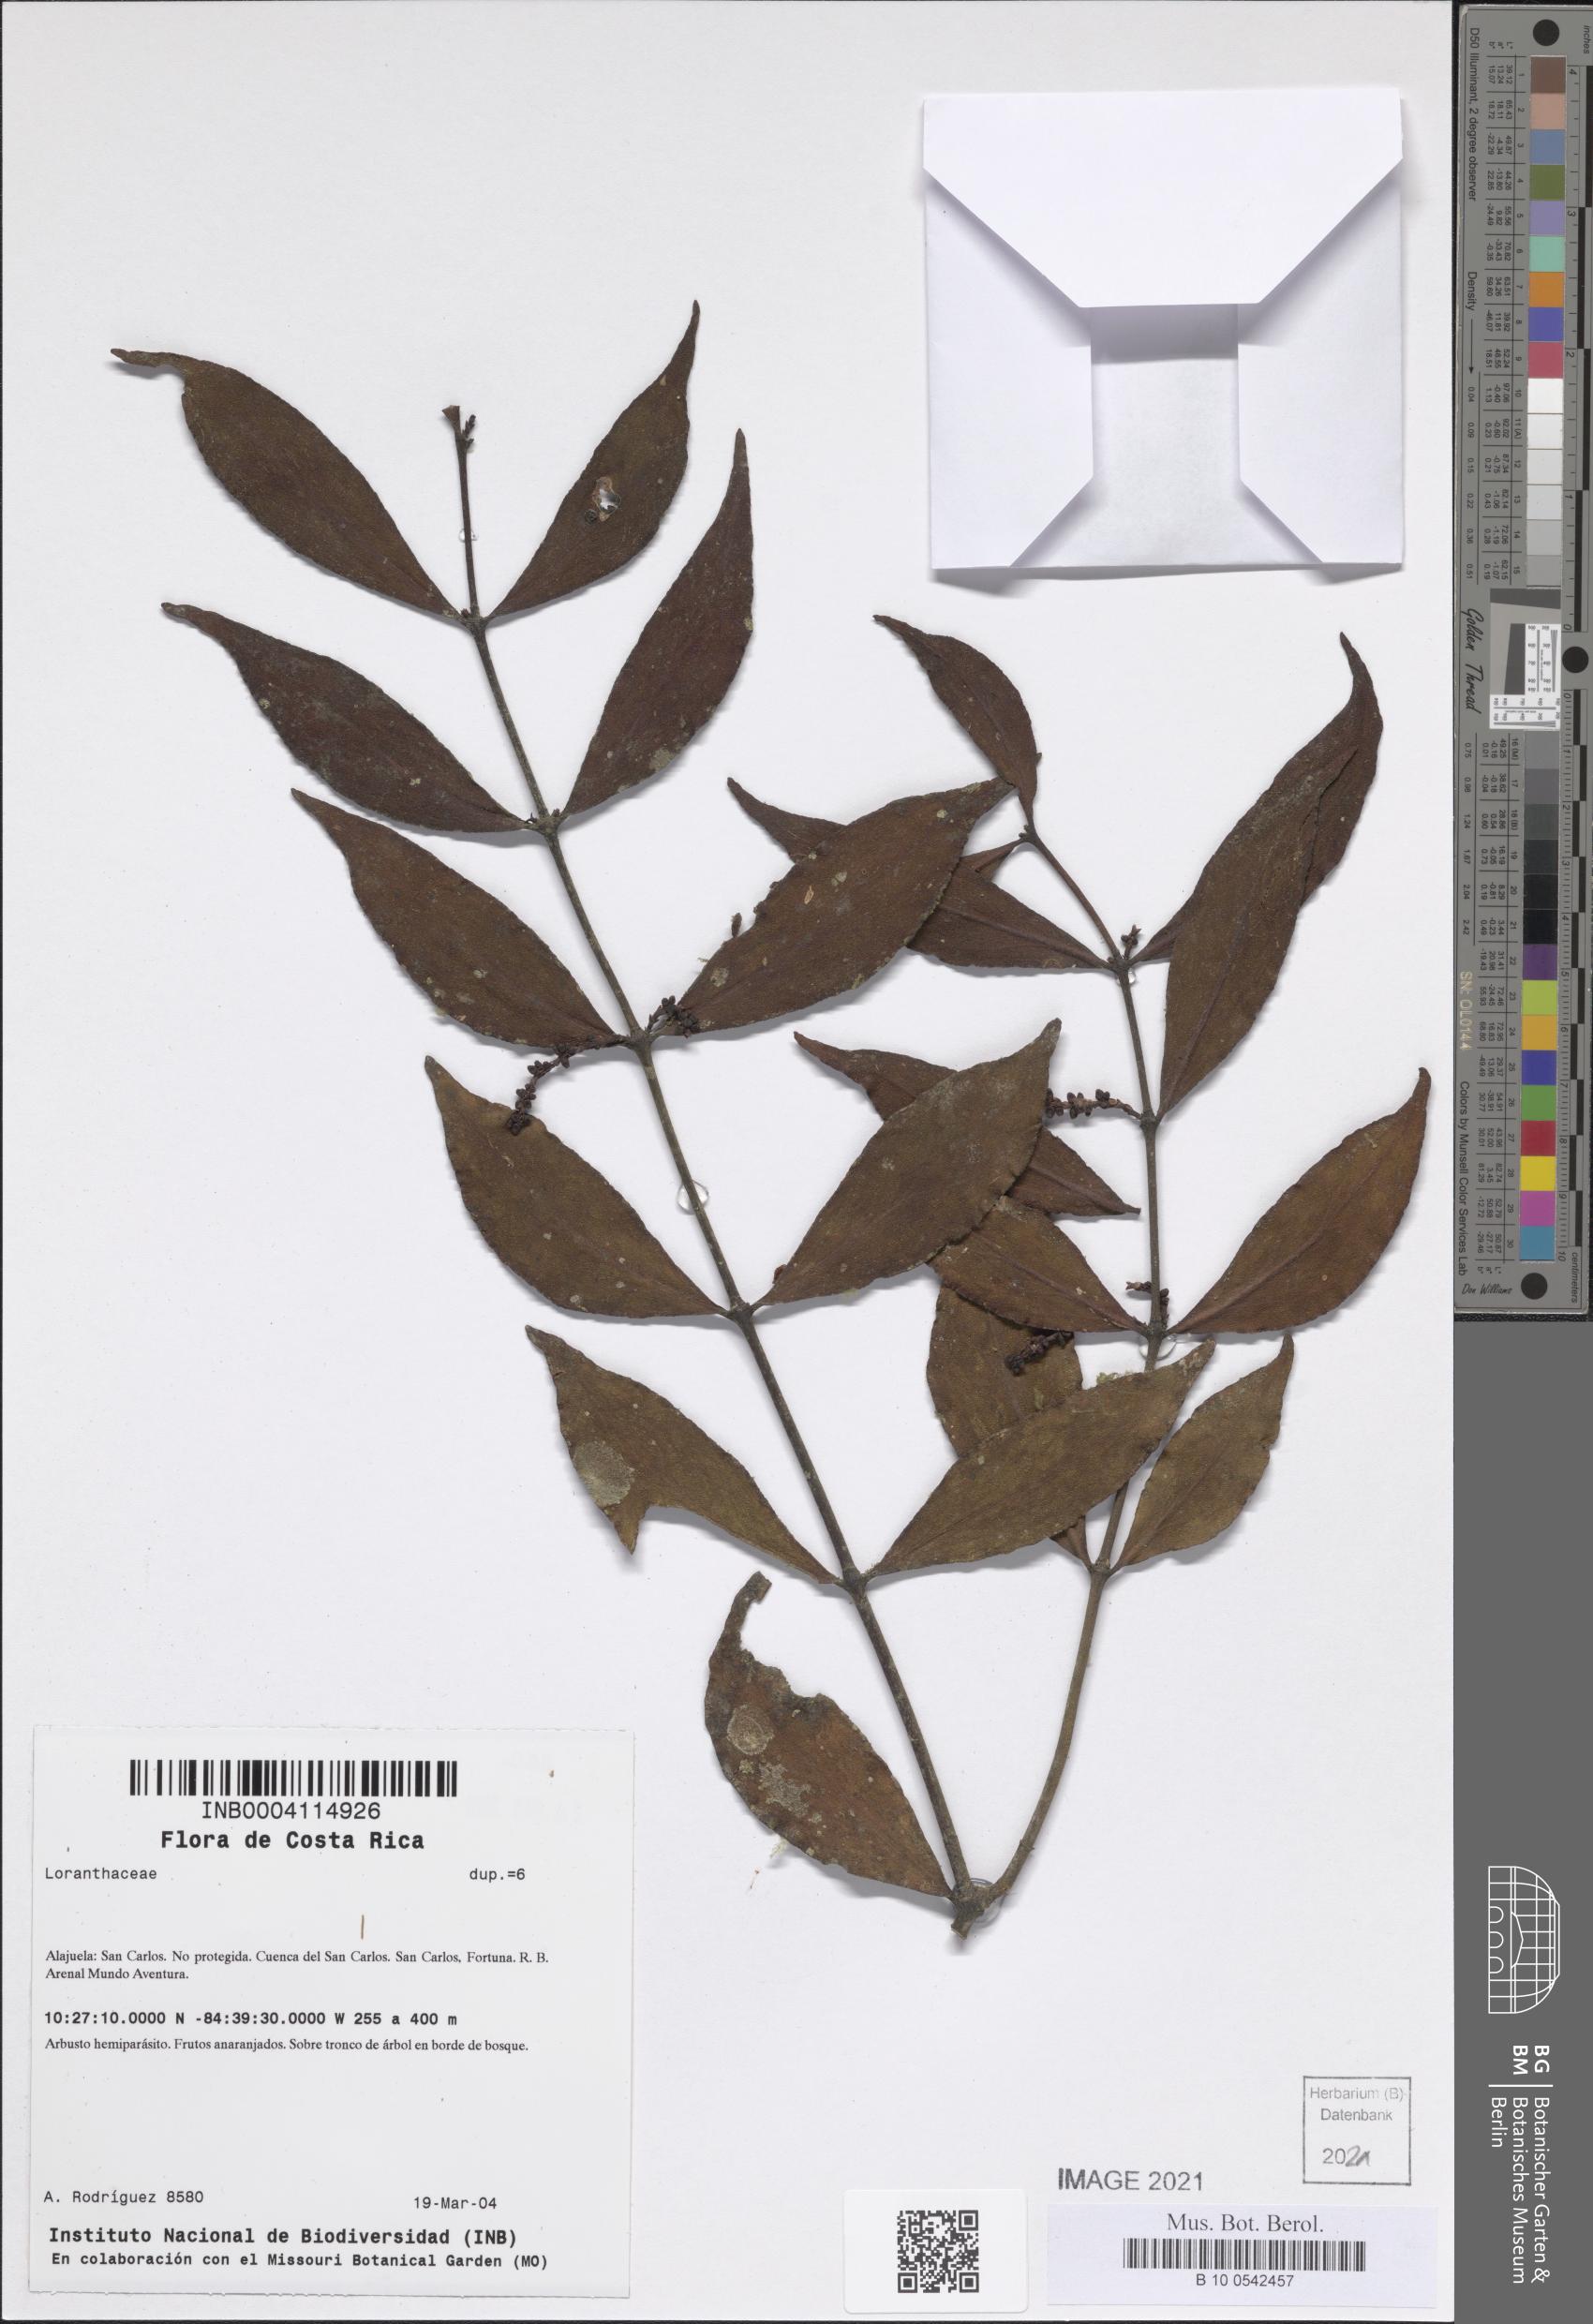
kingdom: Plantae
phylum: Tracheophyta
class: Magnoliopsida
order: Santalales
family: Viscaceae
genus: Phoradendron
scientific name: Phoradendron piperoides
